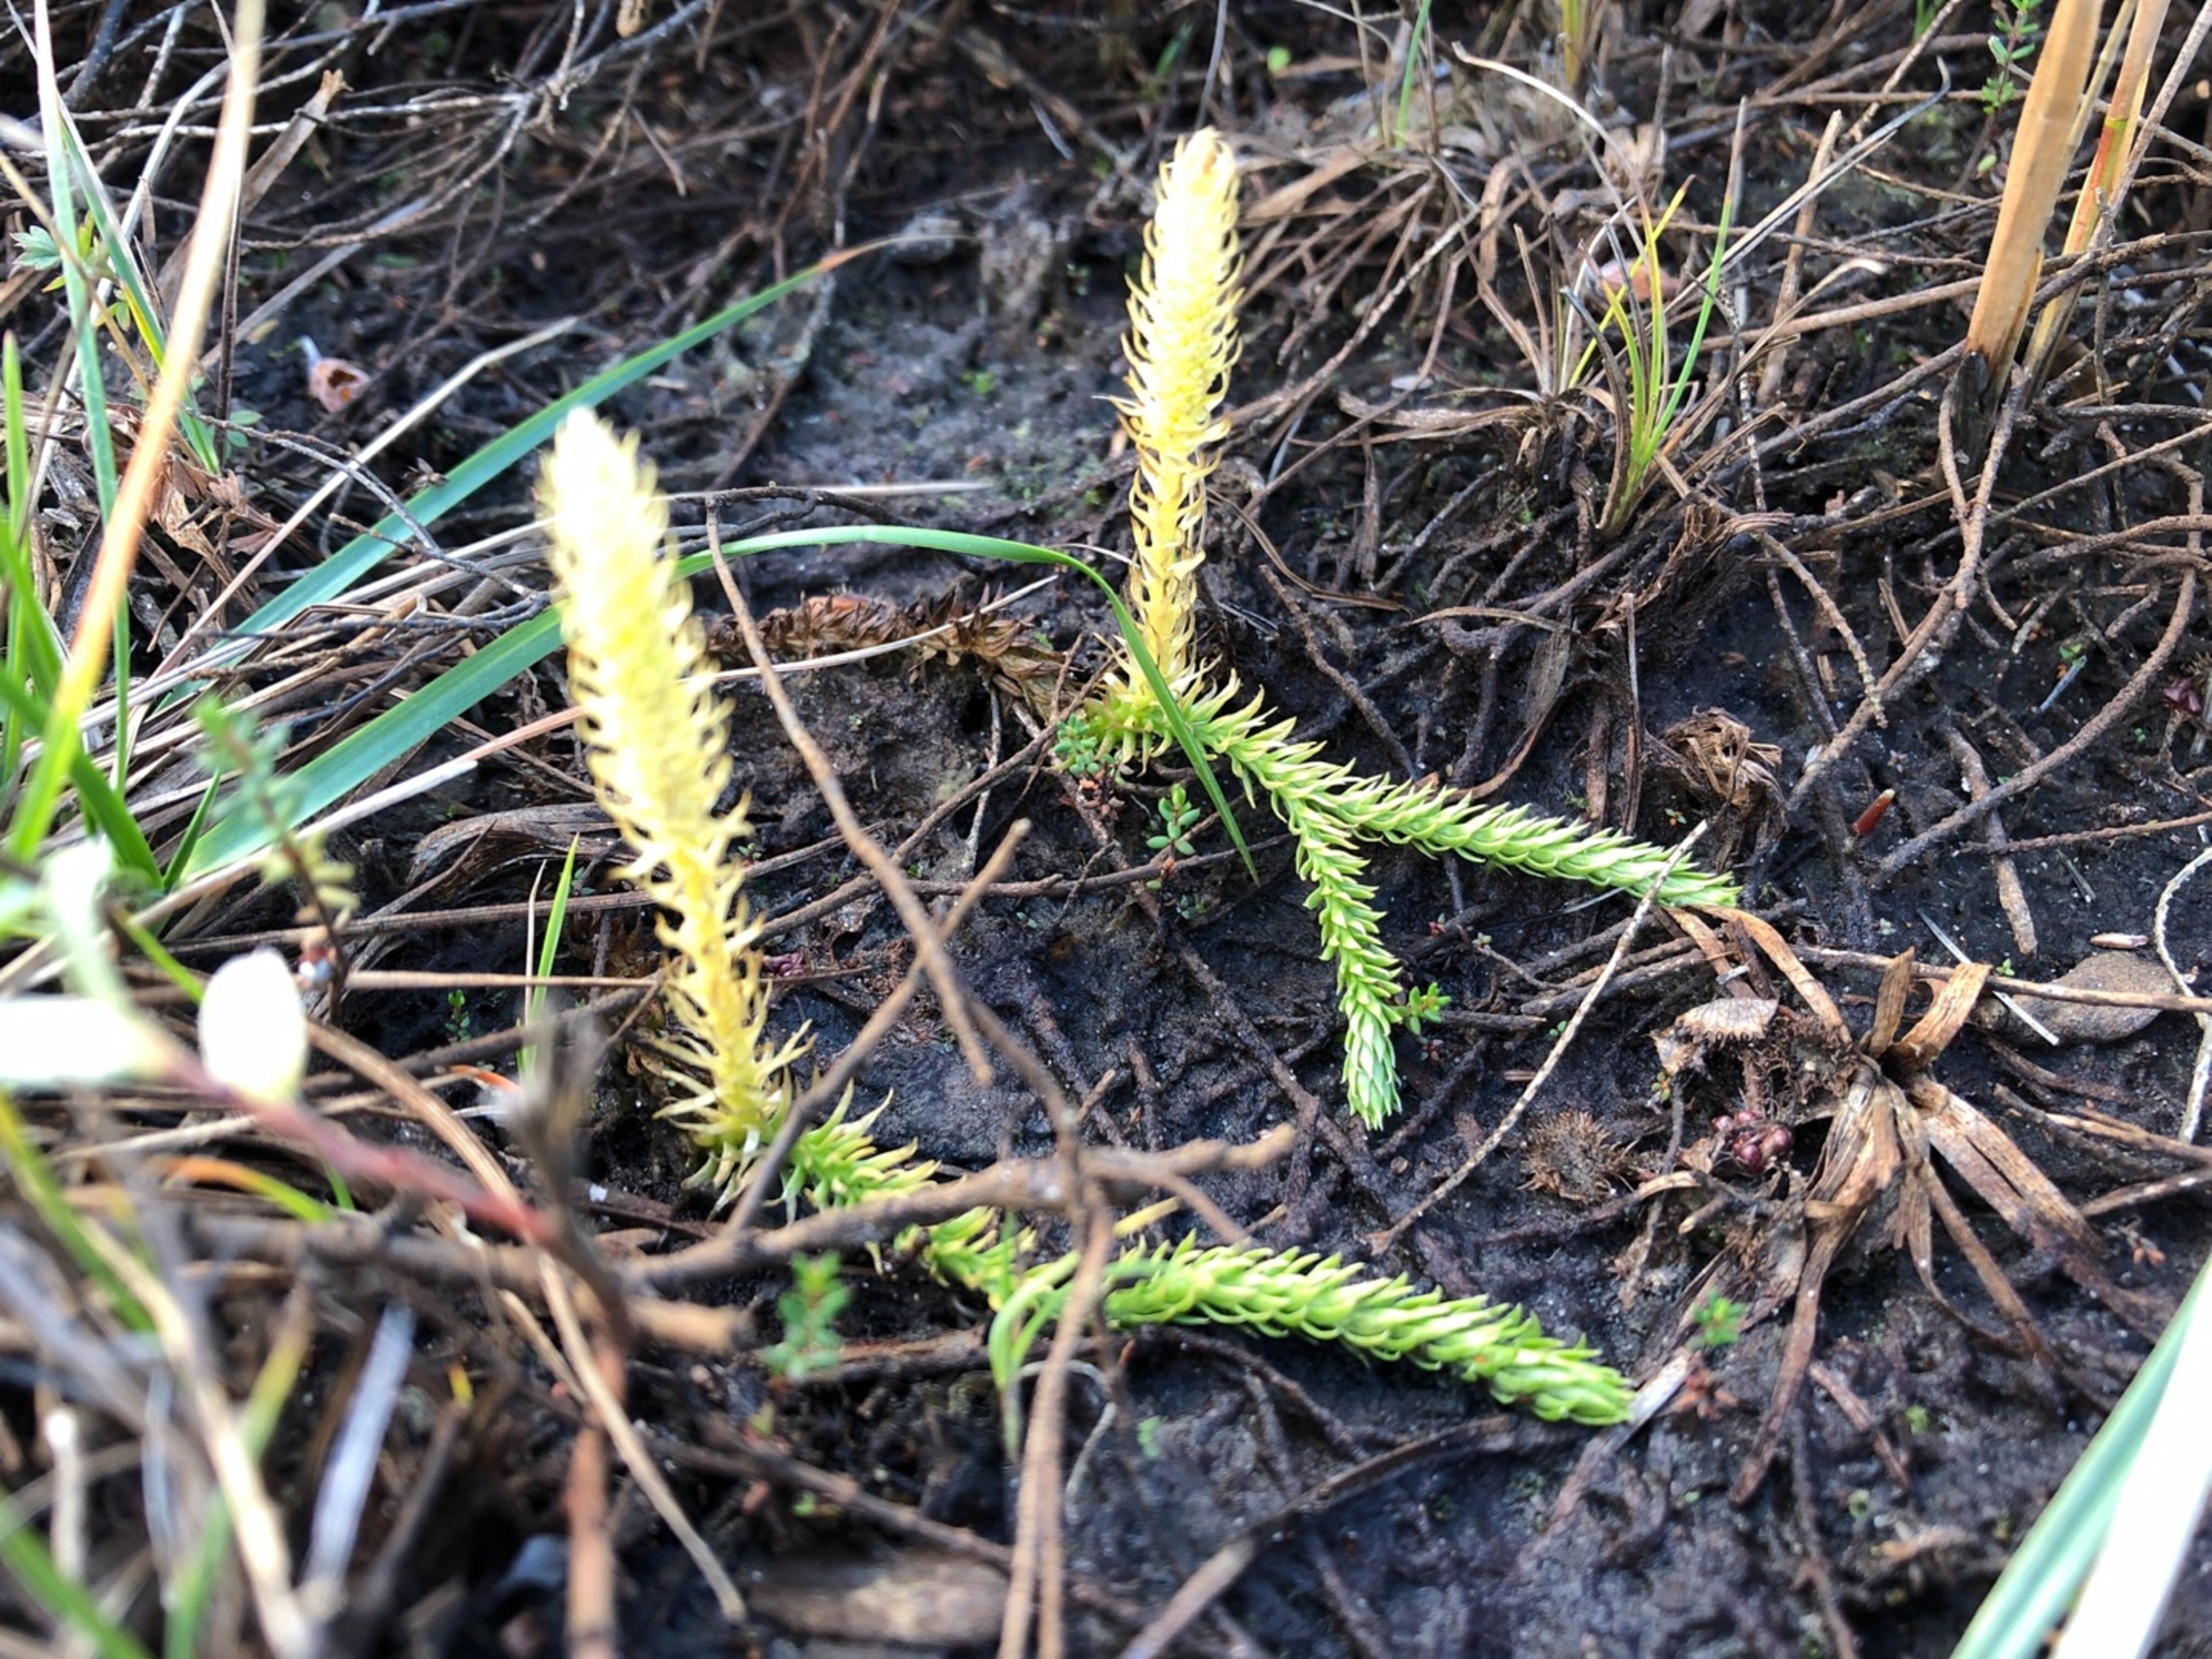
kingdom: Plantae
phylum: Tracheophyta
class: Lycopodiopsida
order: Lycopodiales
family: Lycopodiaceae
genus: Lycopodiella
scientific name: Lycopodiella inundata
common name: Liden ulvefod
